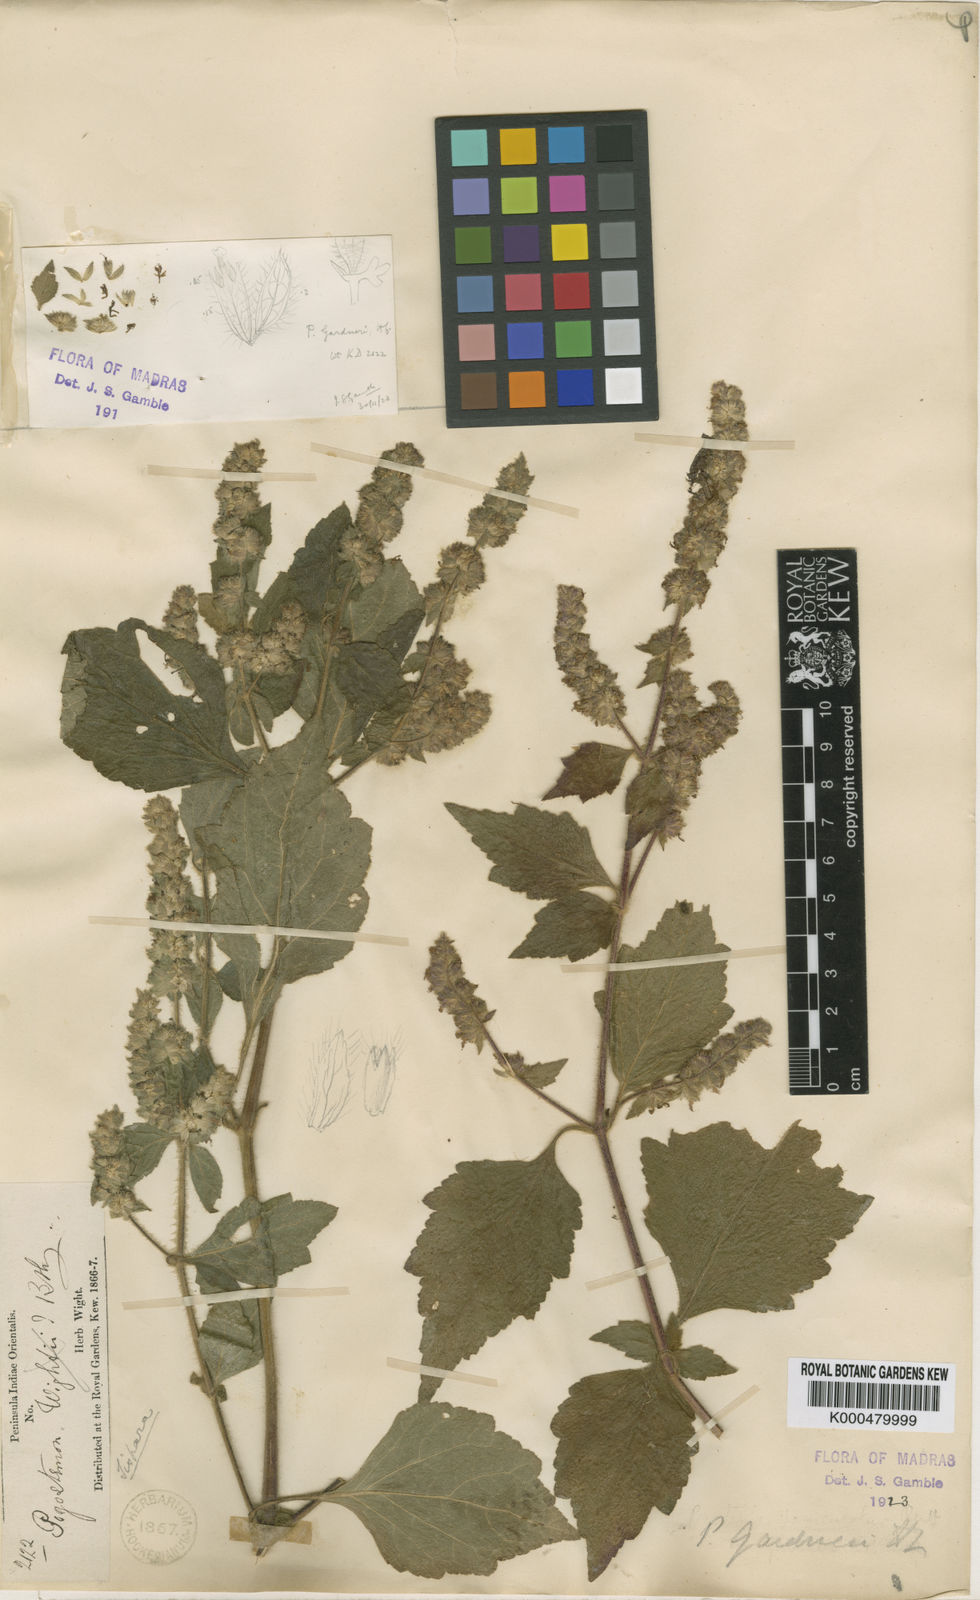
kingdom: Plantae
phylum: Tracheophyta
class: Magnoliopsida
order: Lamiales
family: Lamiaceae
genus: Pogostemon
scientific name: Pogostemon gardneri
